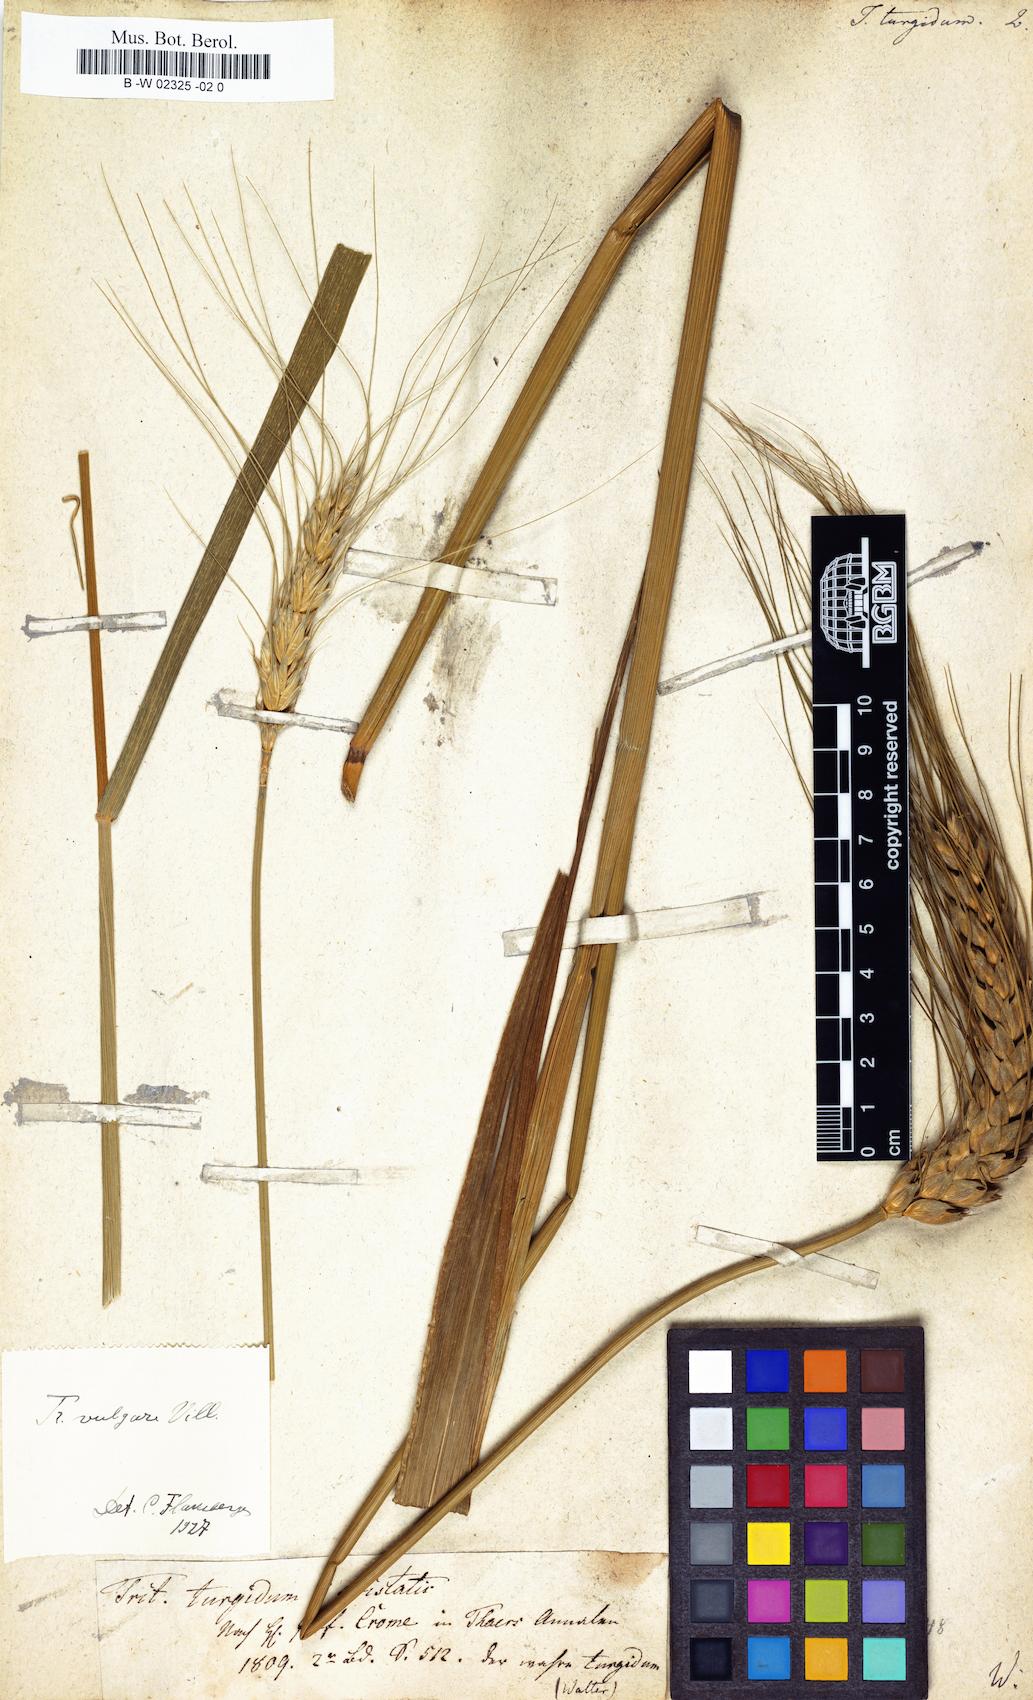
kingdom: Plantae
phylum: Tracheophyta
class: Liliopsida
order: Poales
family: Poaceae
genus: Triticum
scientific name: Triticum turgidum
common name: Rivet wheat
